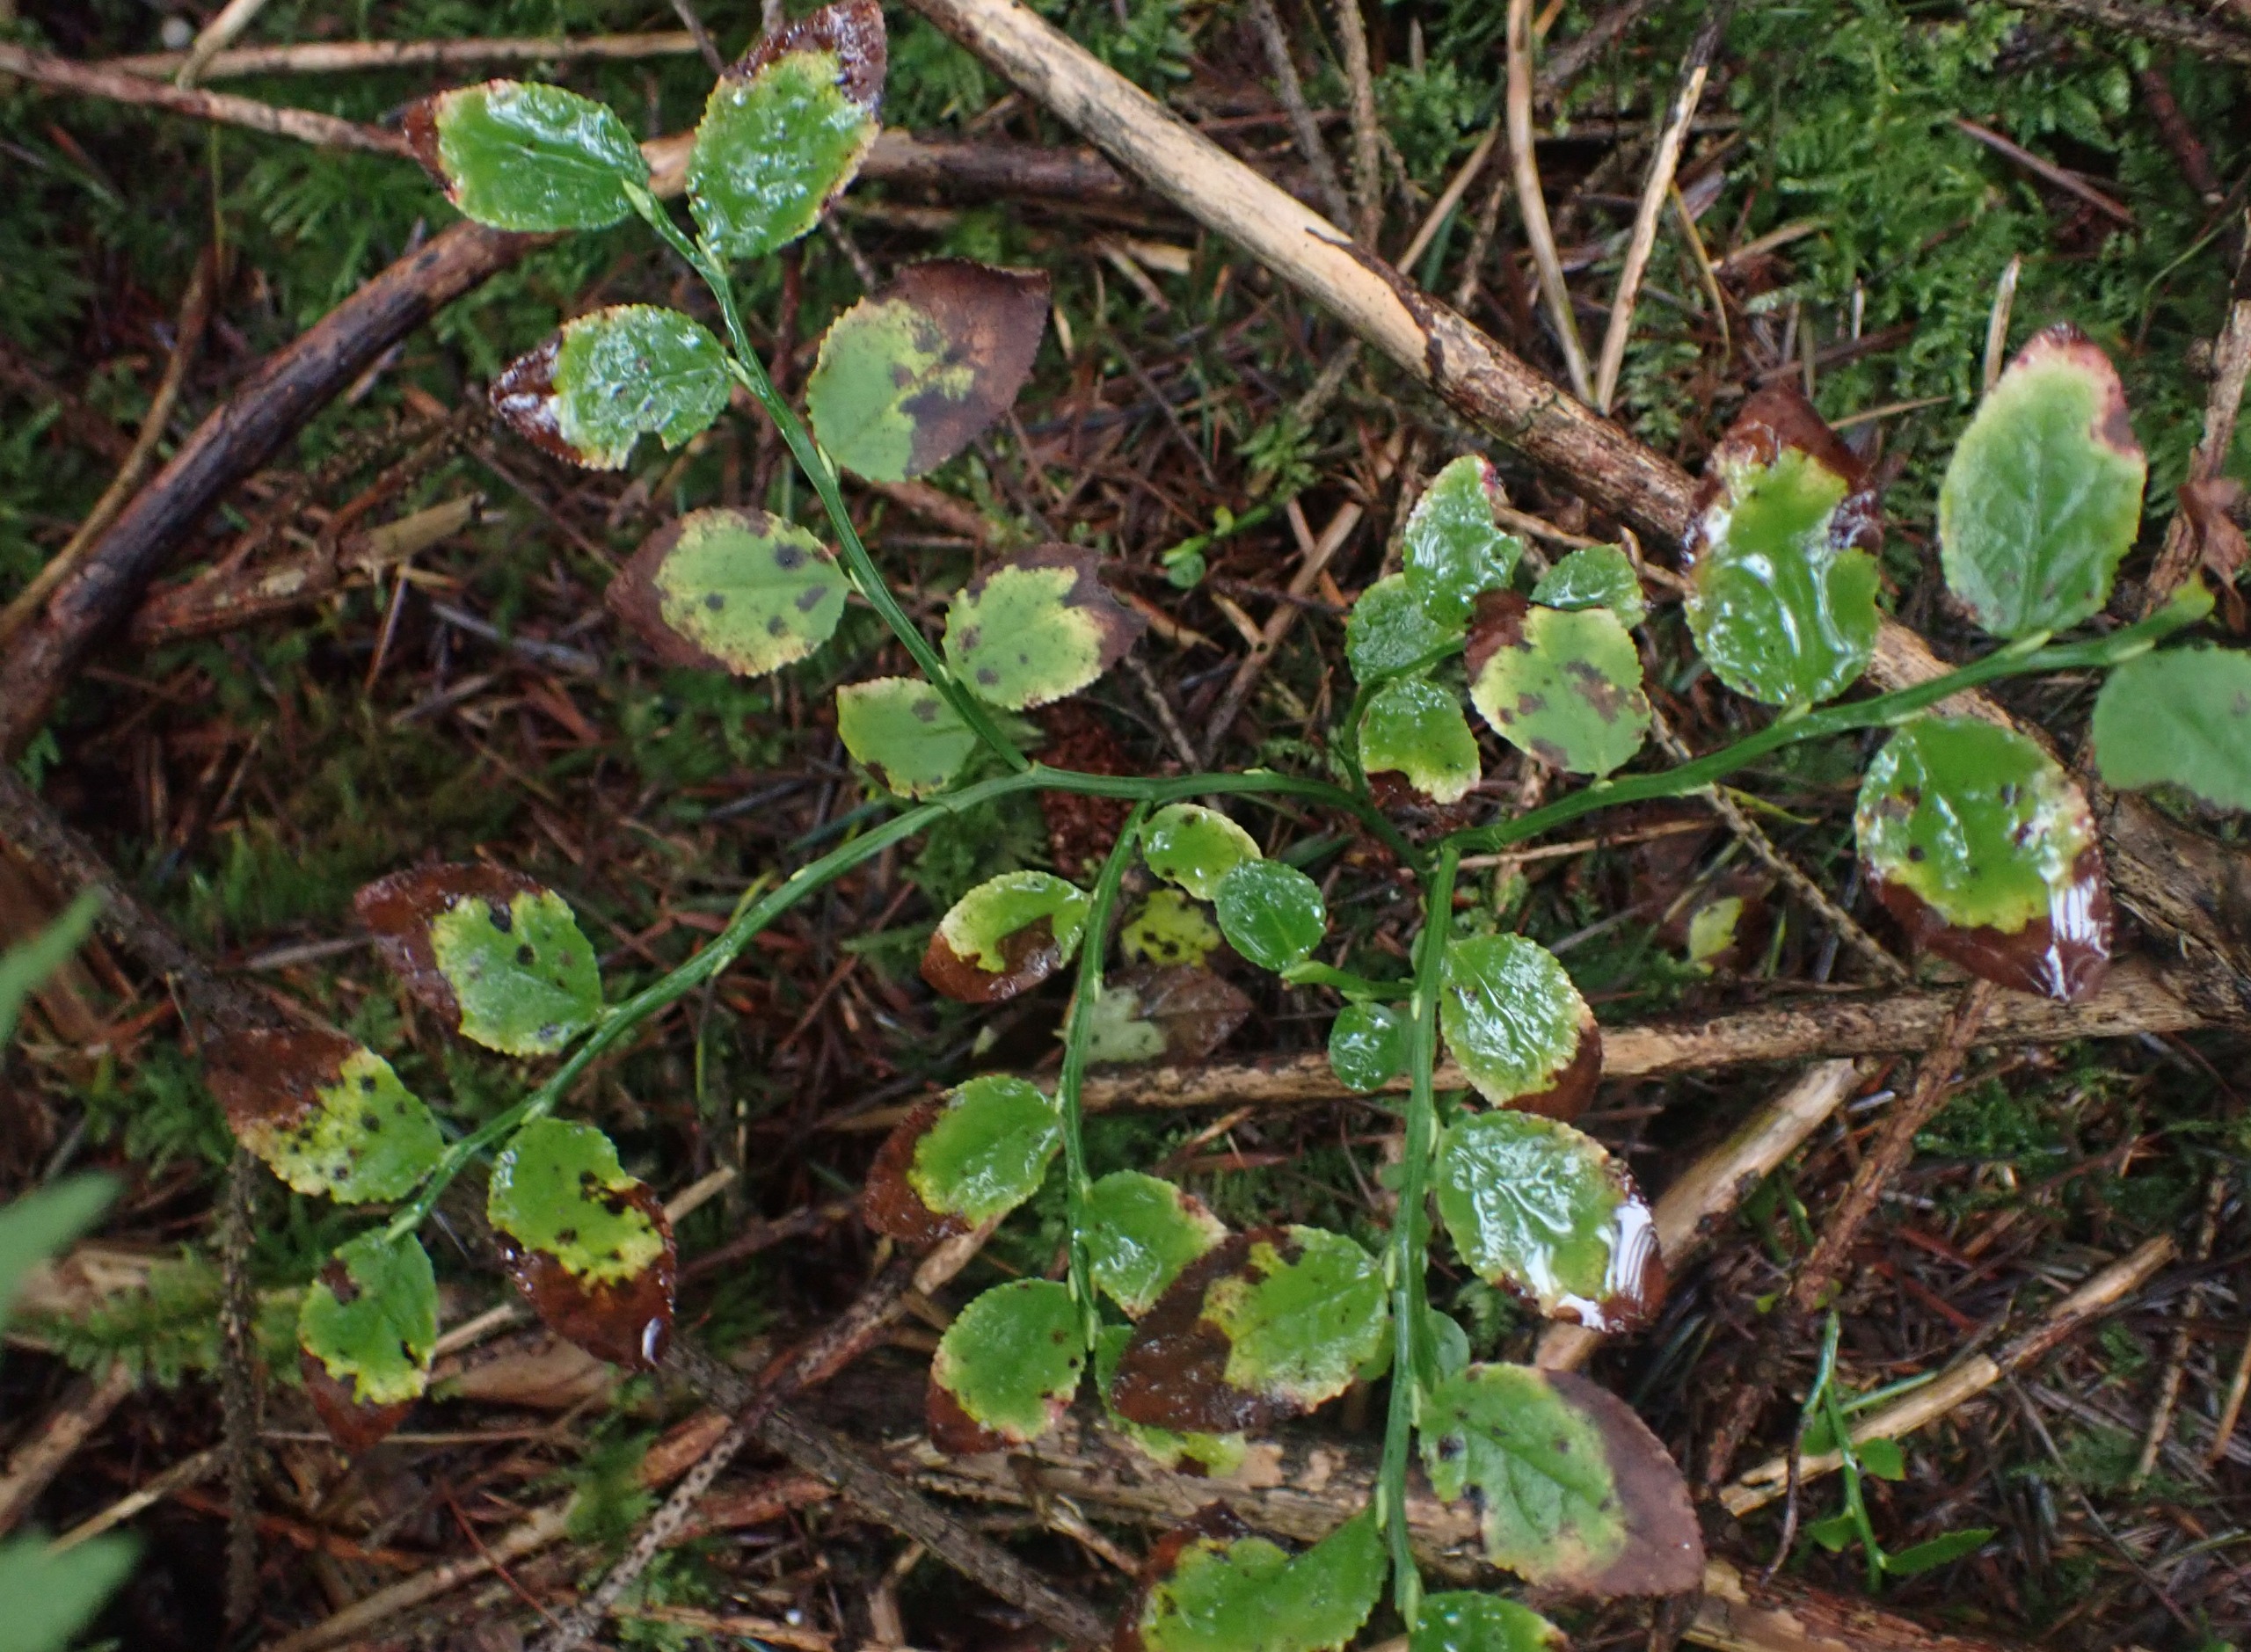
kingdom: Plantae
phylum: Tracheophyta
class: Magnoliopsida
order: Ericales
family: Ericaceae
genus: Vaccinium
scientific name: Vaccinium myrtillus
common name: Blåbær
